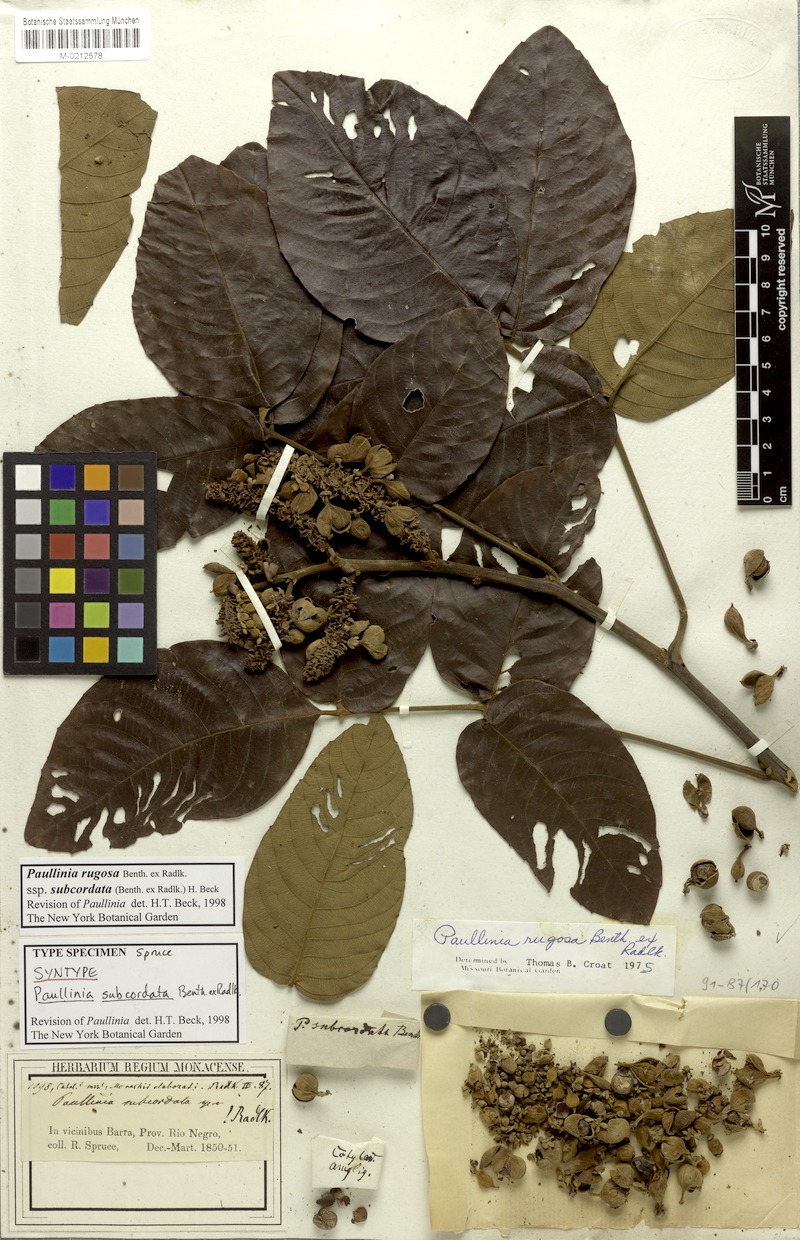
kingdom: Plantae
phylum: Tracheophyta
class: Magnoliopsida
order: Sapindales
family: Sapindaceae
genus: Paullinia
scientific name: Paullinia rugosa
